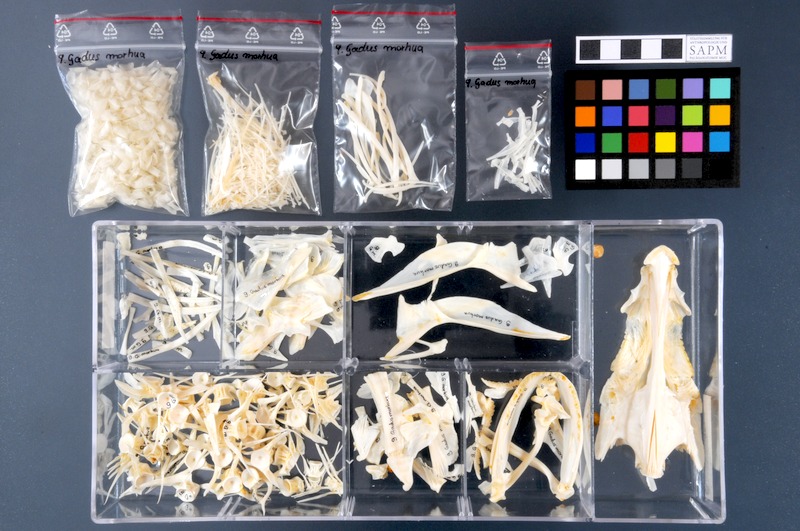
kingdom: Animalia
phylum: Chordata
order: Gadiformes
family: Gadidae
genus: Gadus
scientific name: Gadus morhua
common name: Atlantic cod
